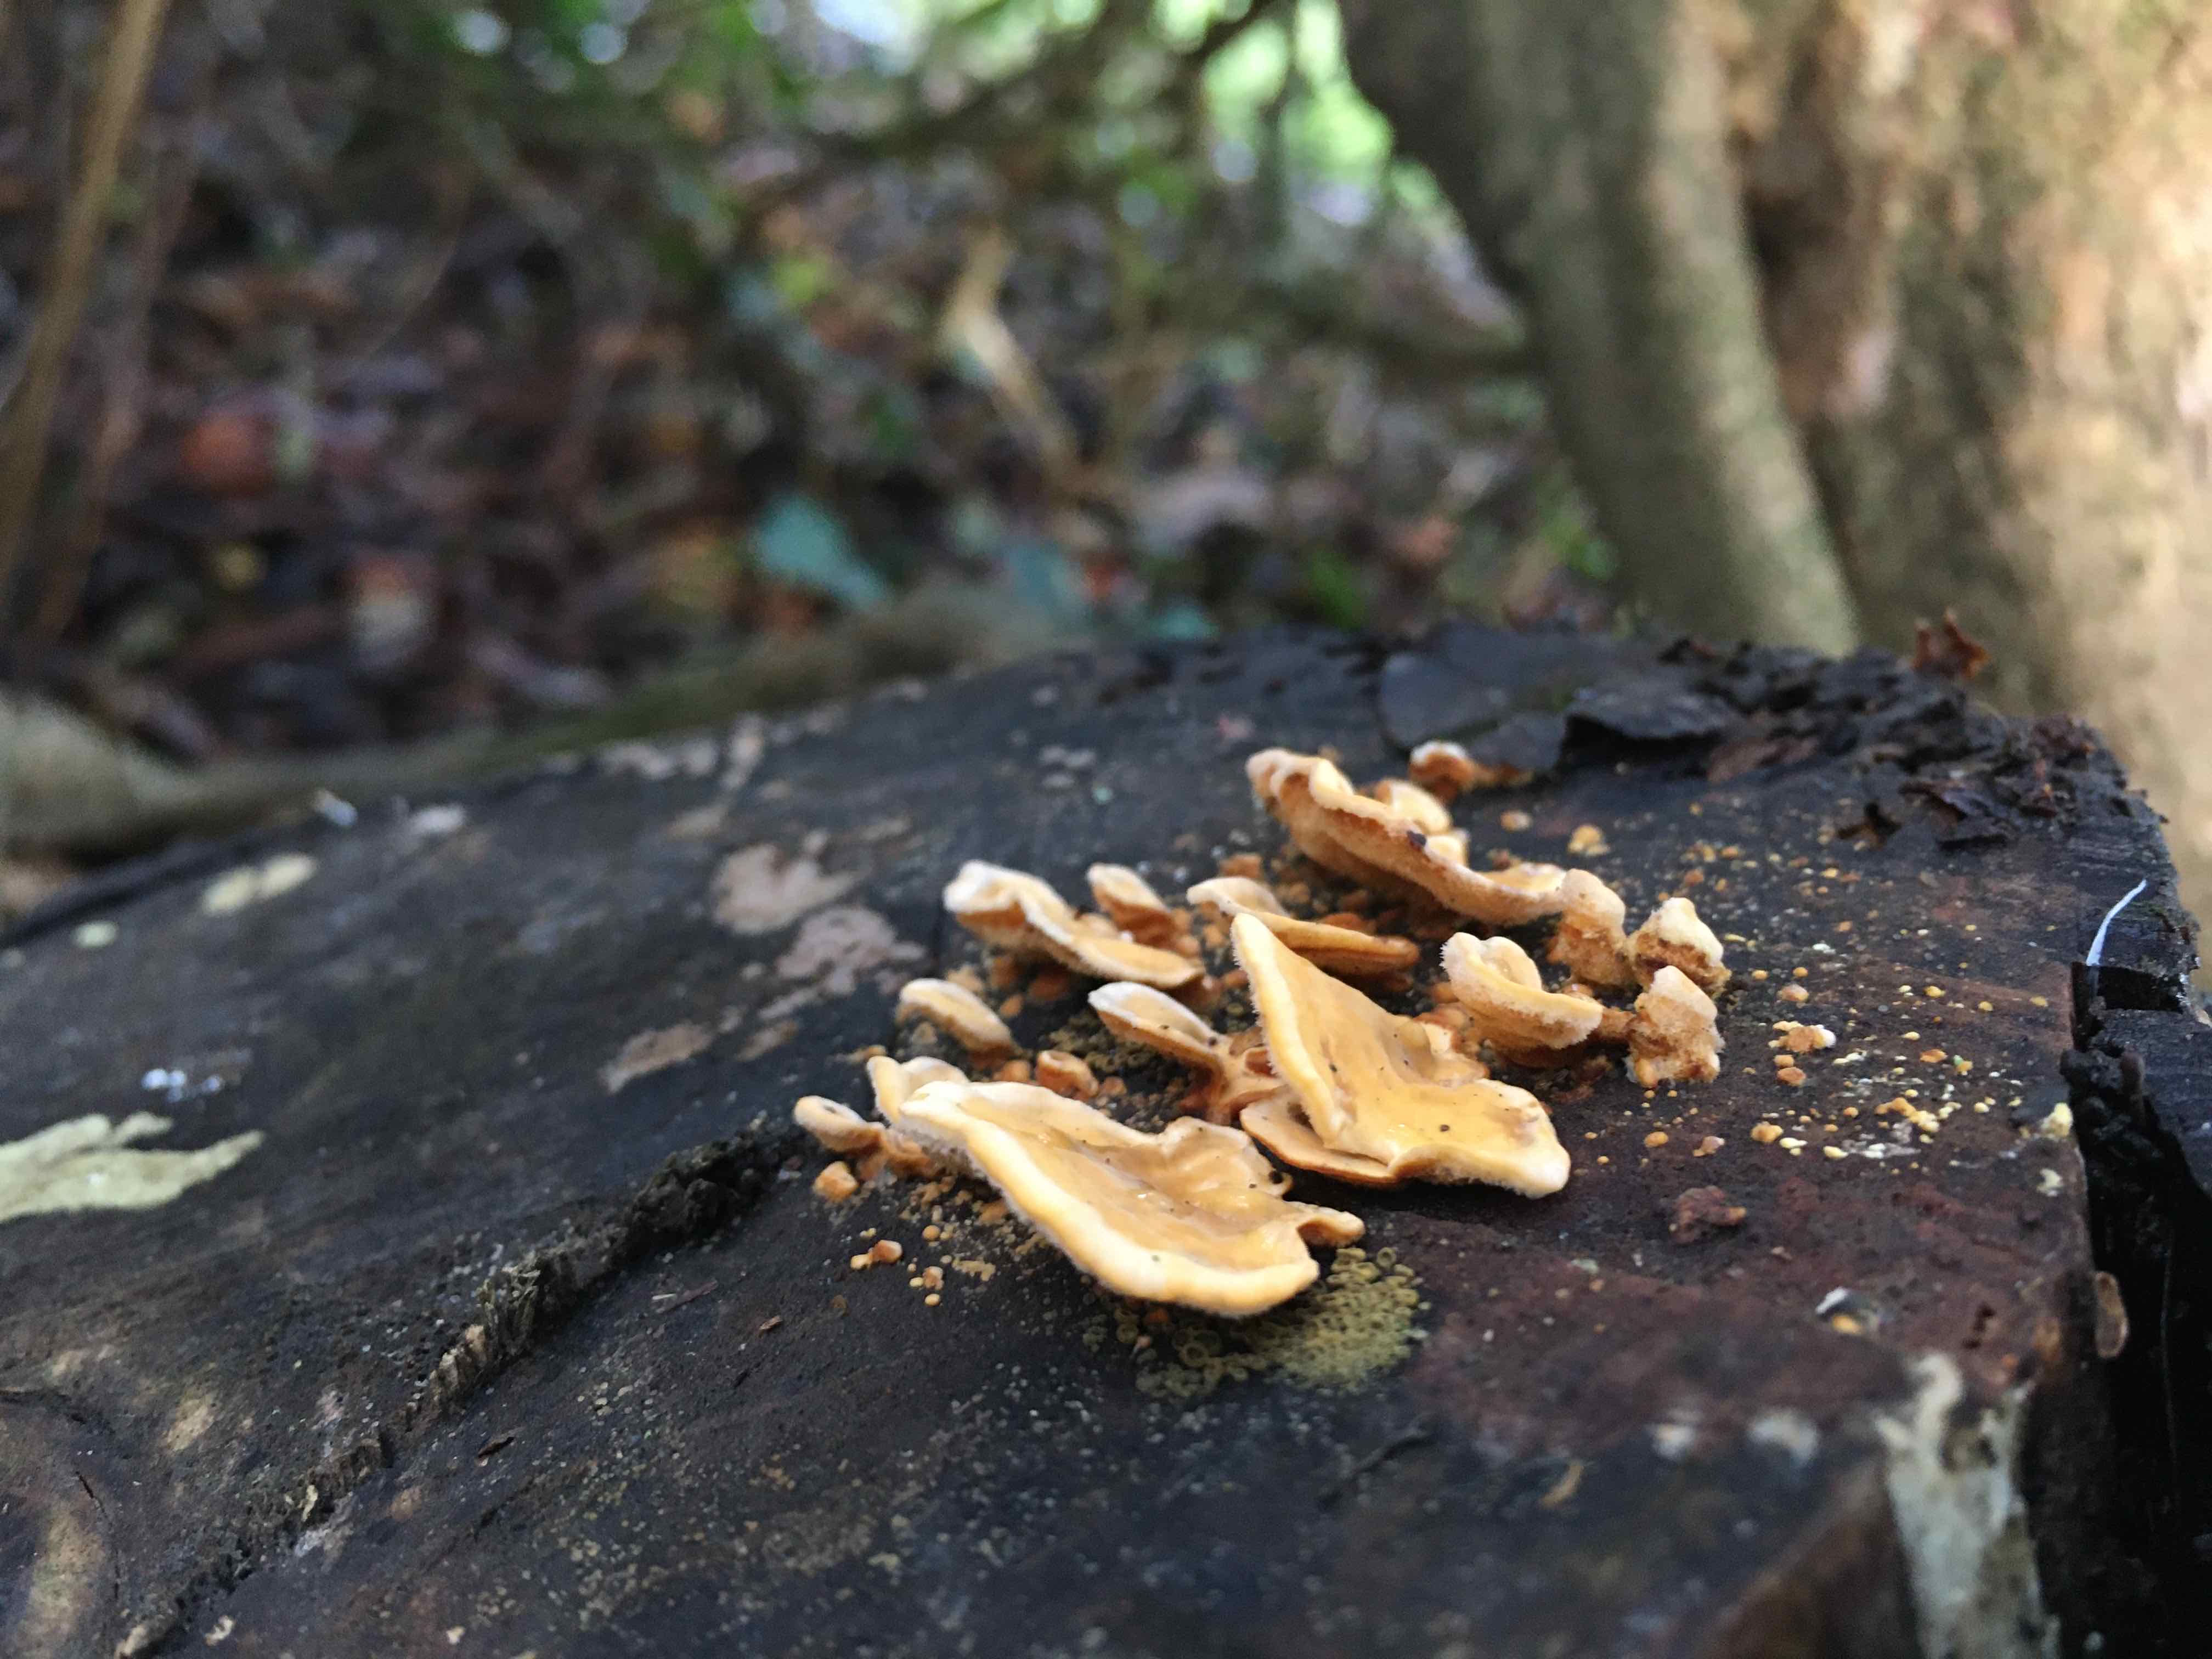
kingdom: Fungi
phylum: Basidiomycota
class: Agaricomycetes
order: Russulales
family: Stereaceae
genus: Stereum
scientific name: Stereum hirsutum
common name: håret lædersvamp
